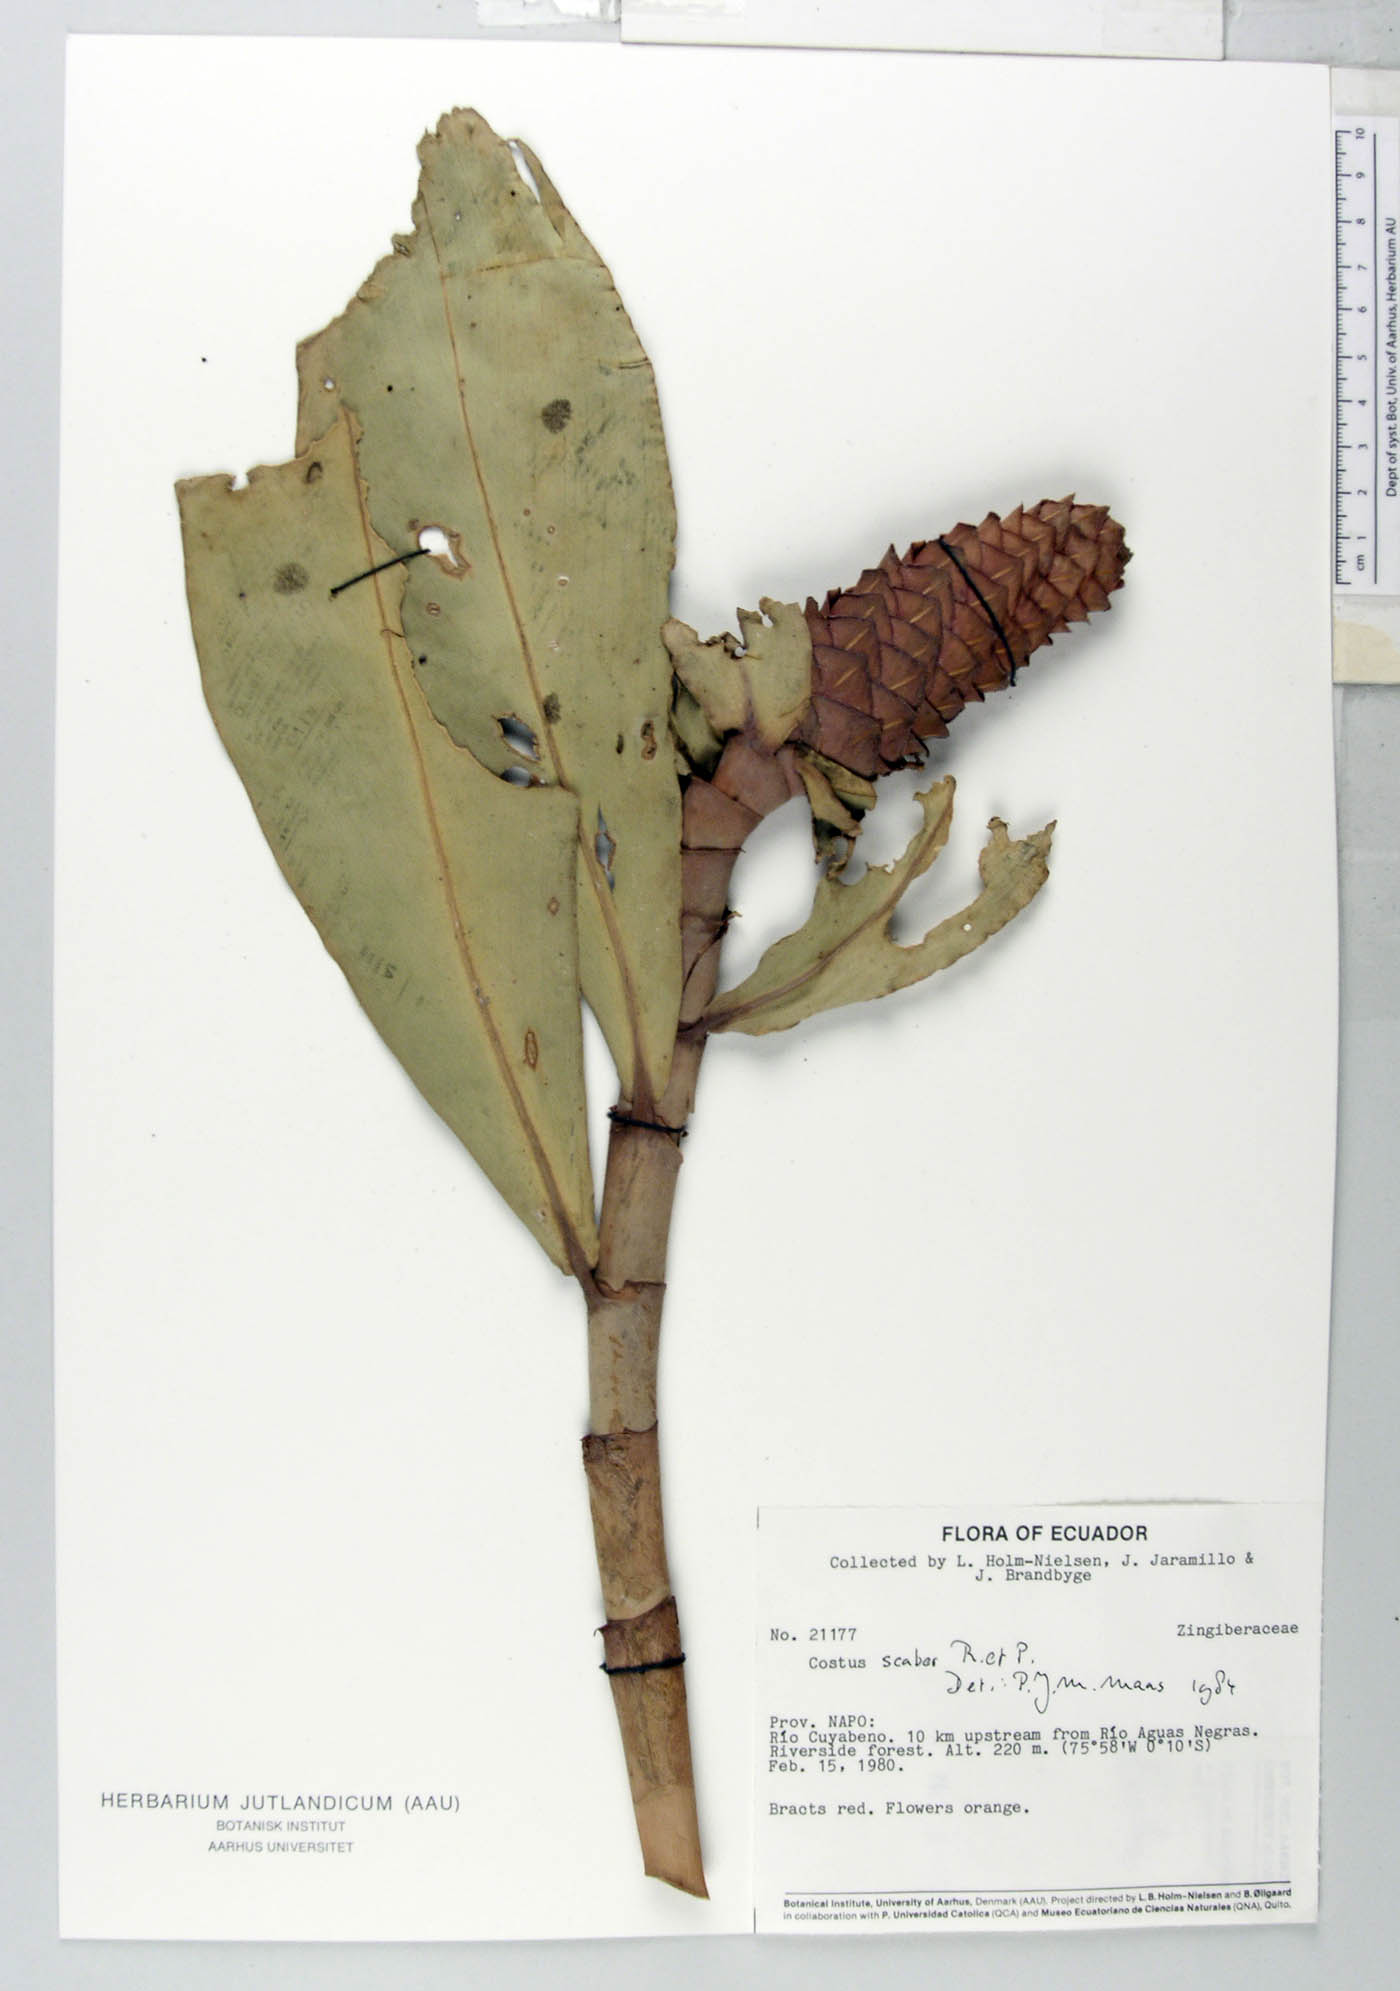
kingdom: Plantae
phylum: Tracheophyta
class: Liliopsida
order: Zingiberales
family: Costaceae
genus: Costus
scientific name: Costus scaber
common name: Spiral head ginger
